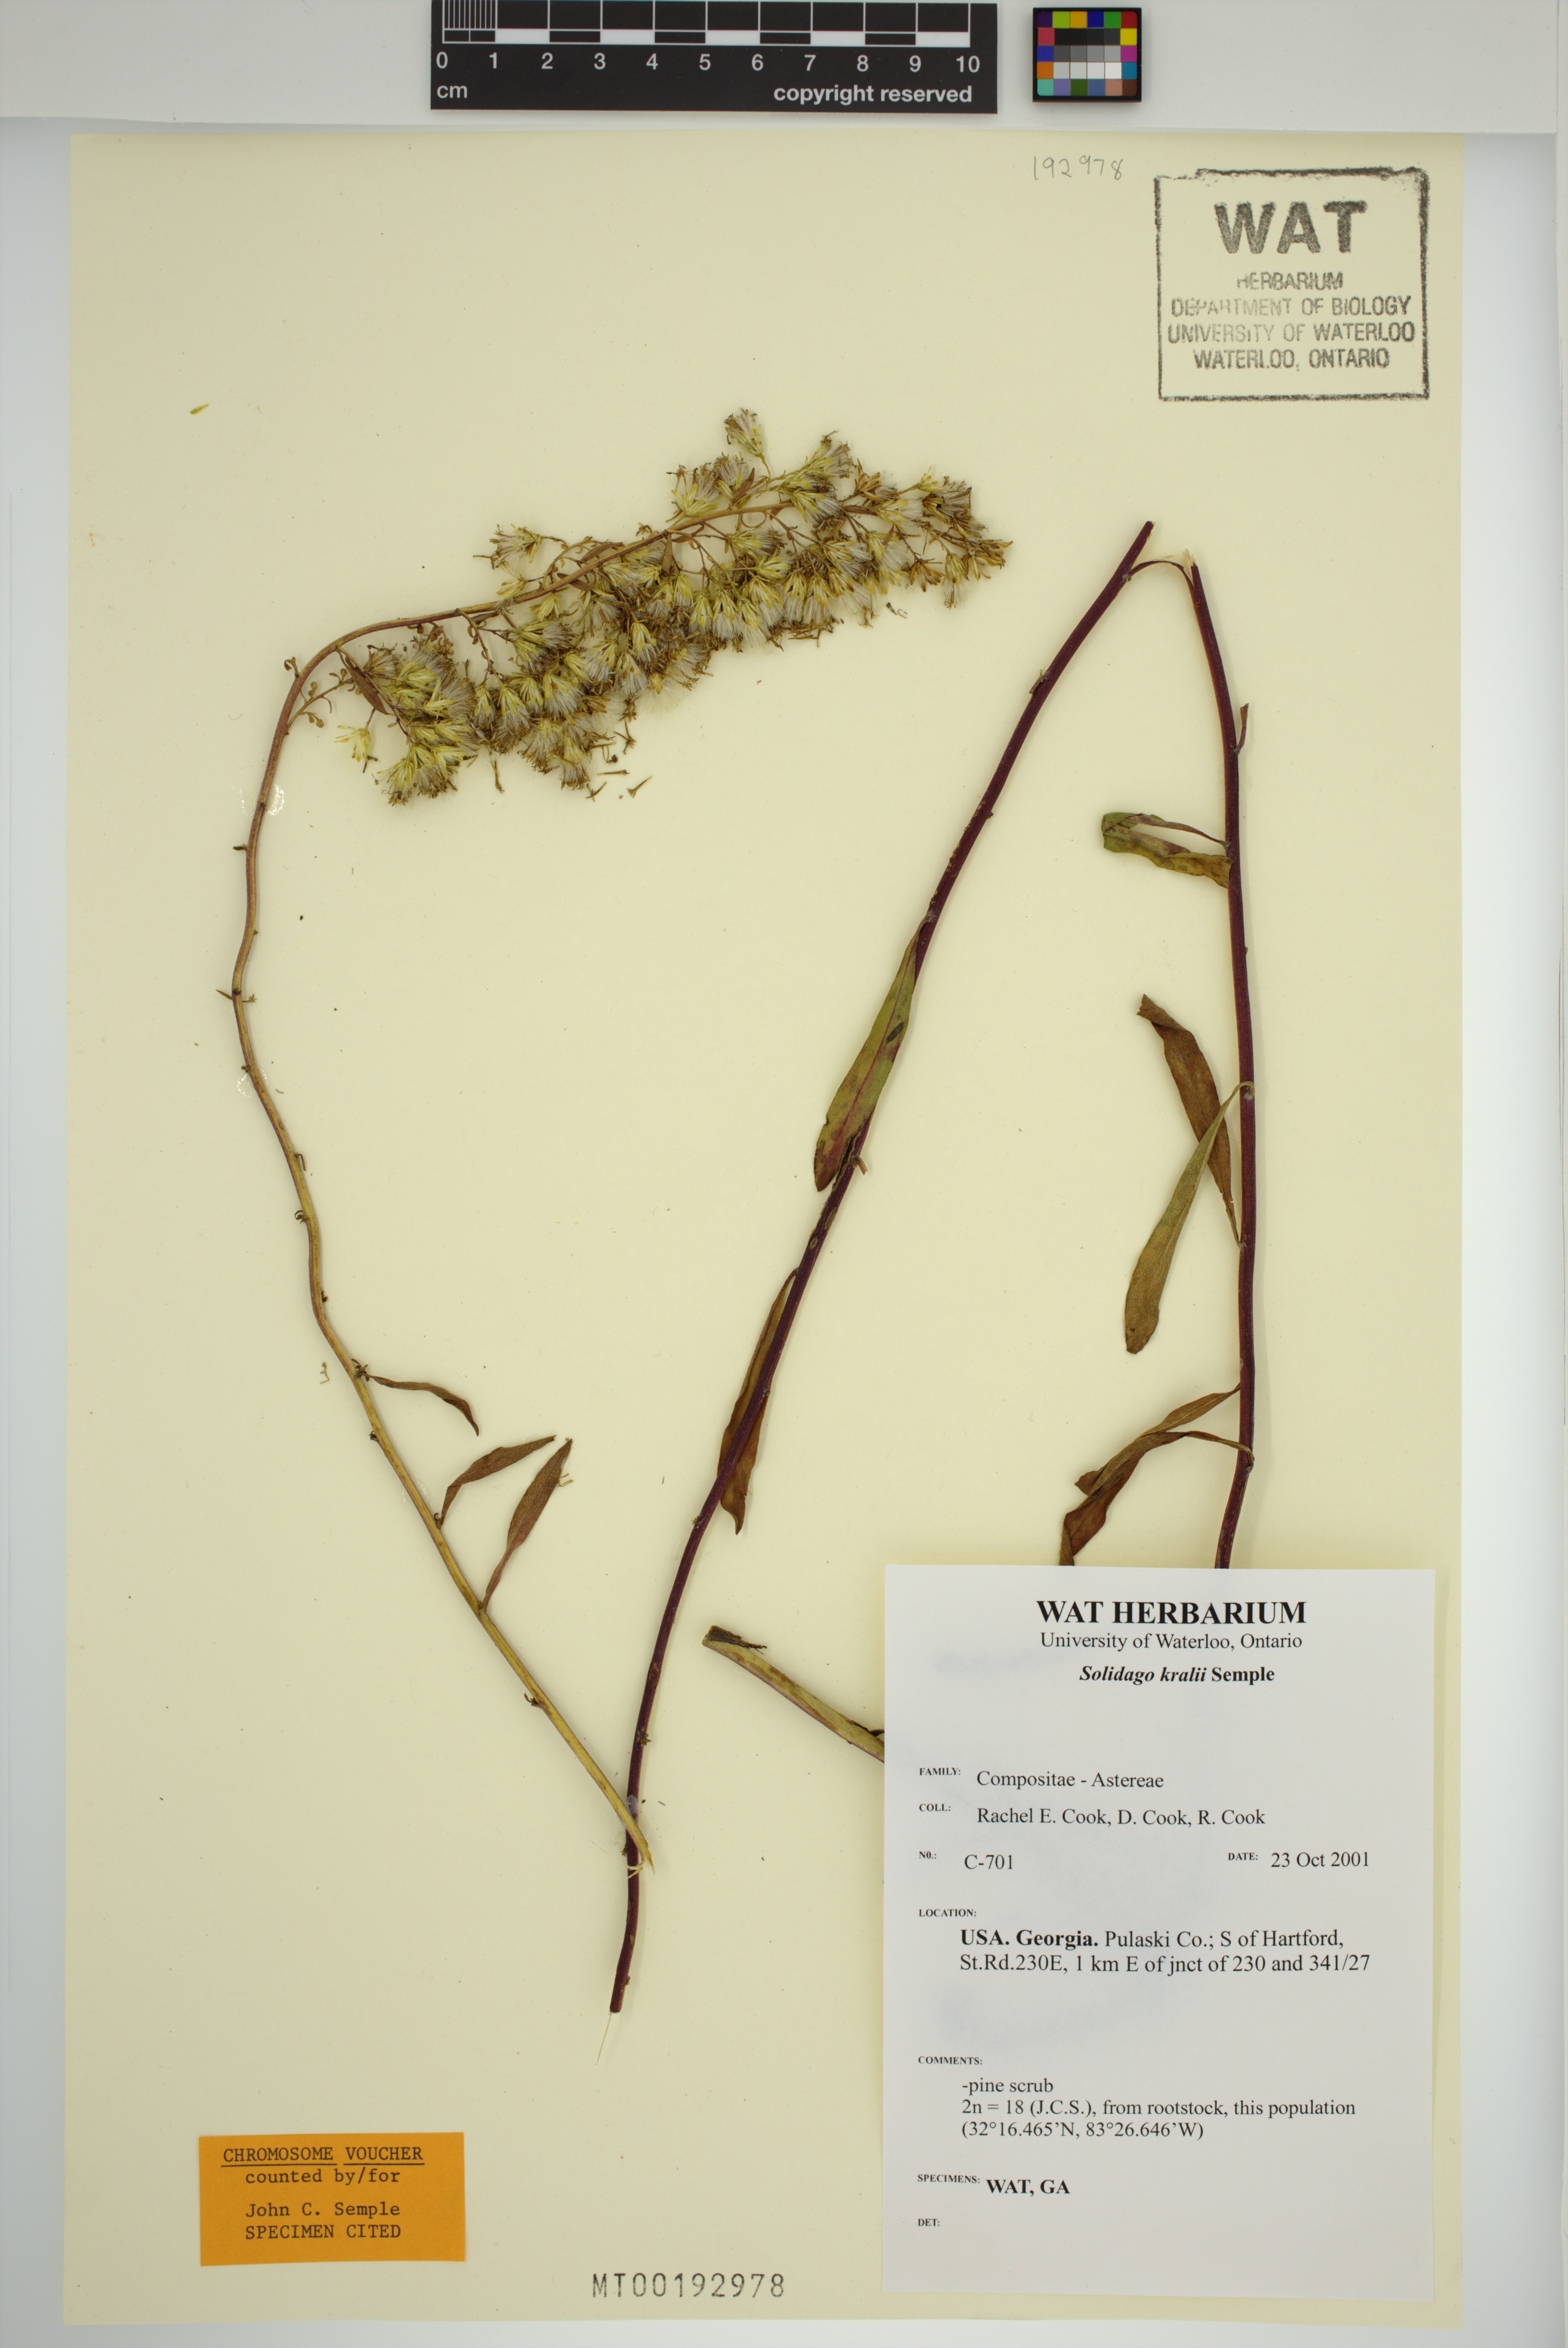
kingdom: Plantae
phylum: Tracheophyta
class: Magnoliopsida
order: Asterales
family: Asteraceae
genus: Solidago
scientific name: Solidago kralii
